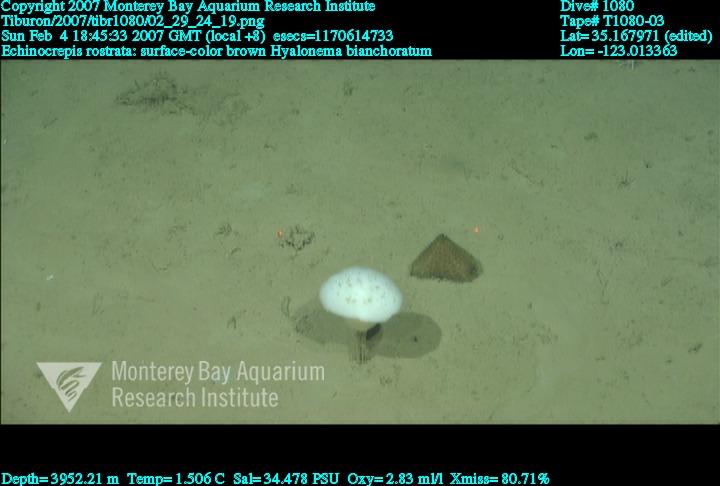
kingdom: Animalia
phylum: Porifera
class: Hexactinellida
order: Amphidiscosida
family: Hyalonematidae
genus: Hyalonema
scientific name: Hyalonema bianchoratum
